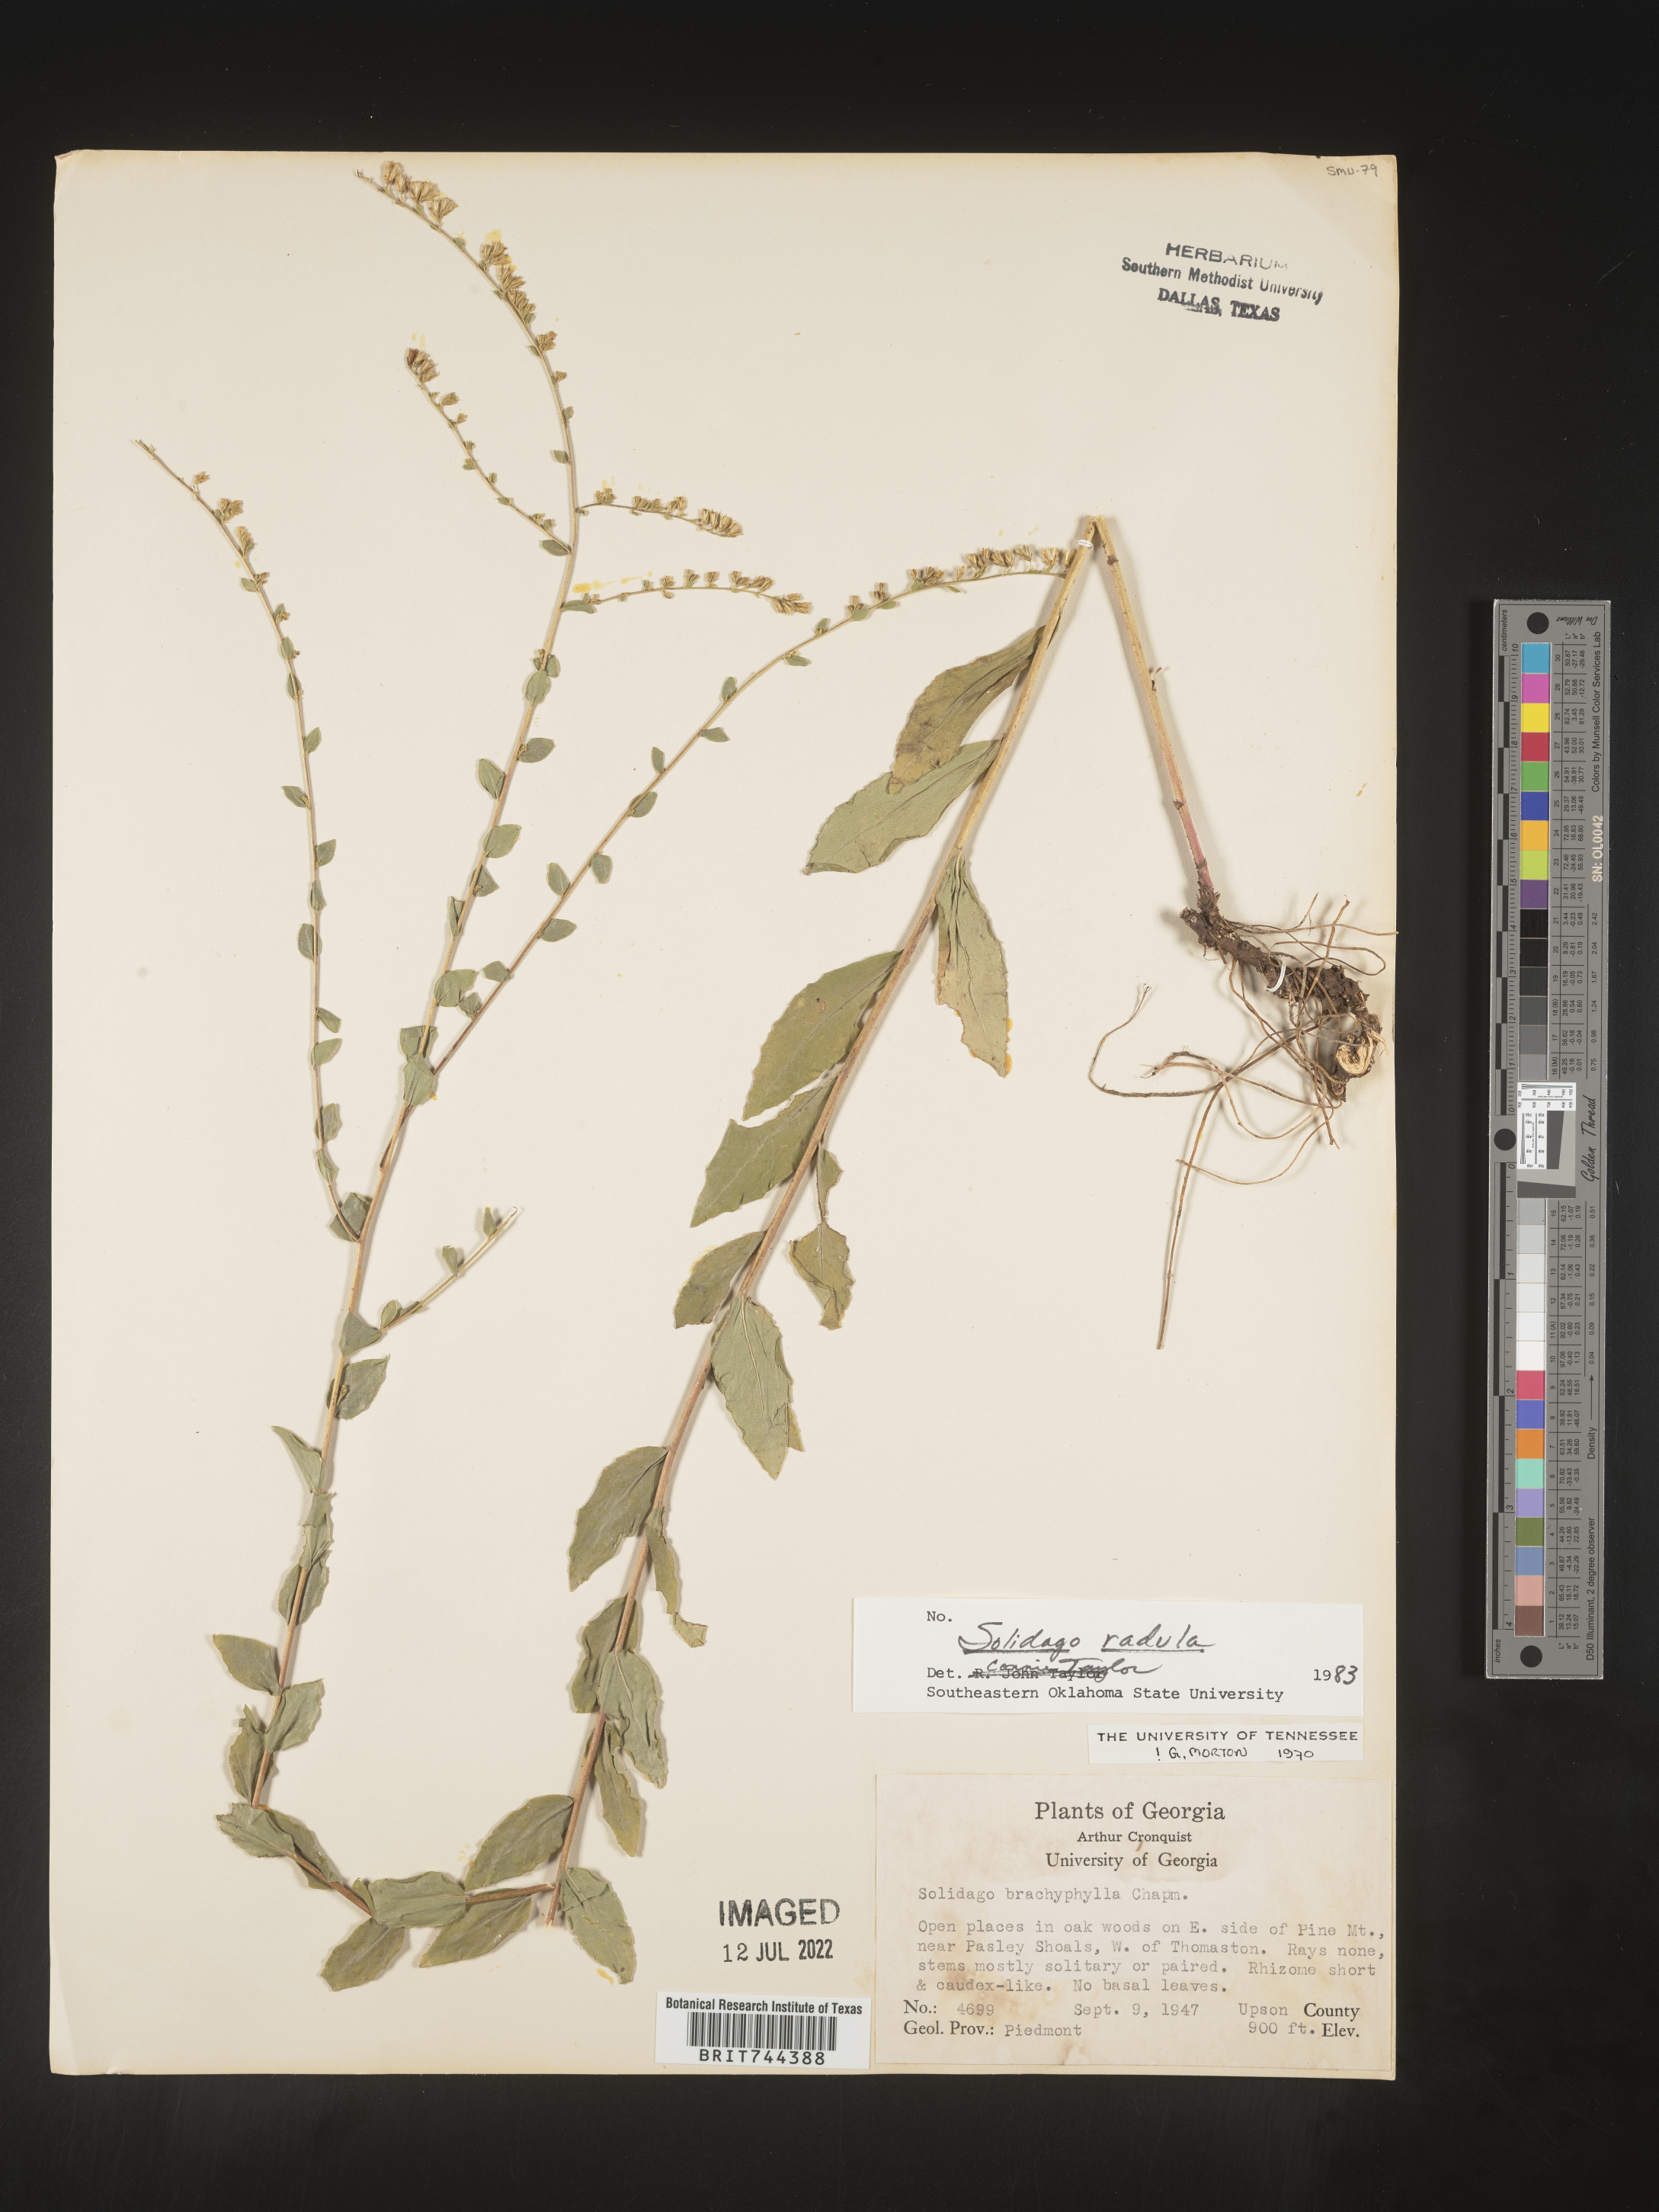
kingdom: Plantae
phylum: Tracheophyta
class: Magnoliopsida
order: Asterales
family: Asteraceae
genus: Solidago
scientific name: Solidago brachyphylla
